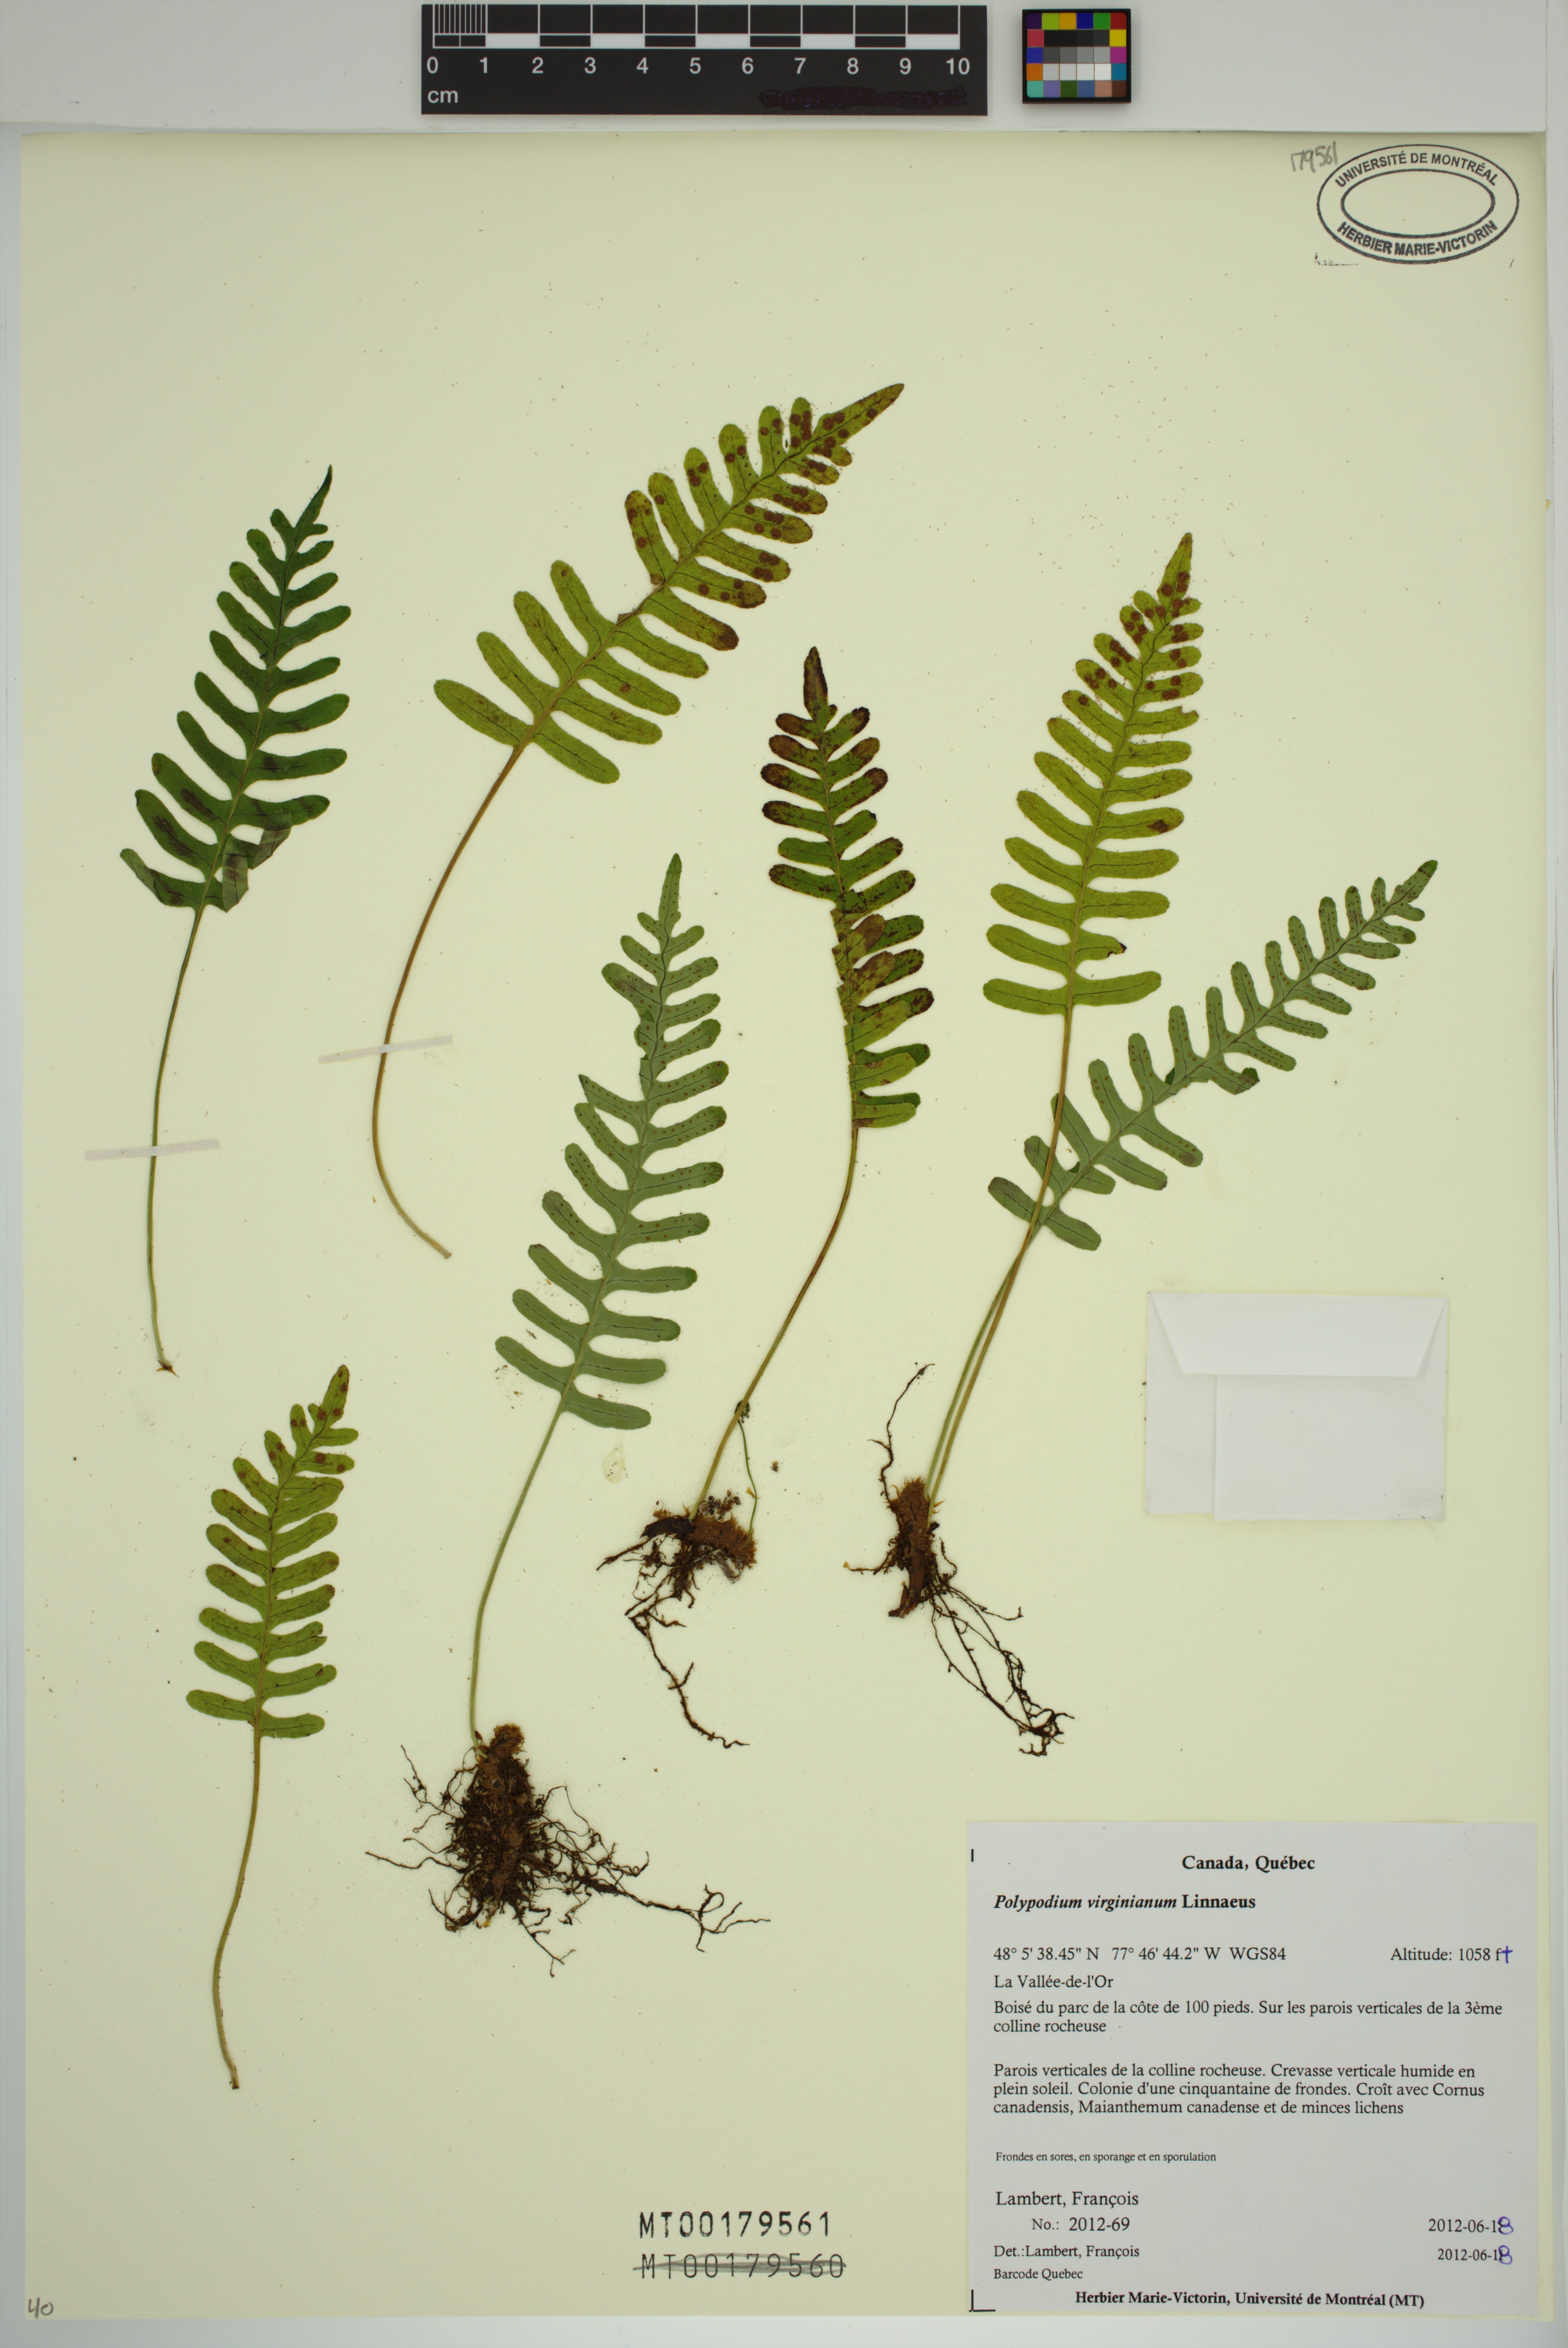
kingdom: Plantae
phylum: Tracheophyta
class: Polypodiopsida
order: Polypodiales
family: Polypodiaceae
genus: Polypodium
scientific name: Polypodium virginianum
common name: American wall fern
